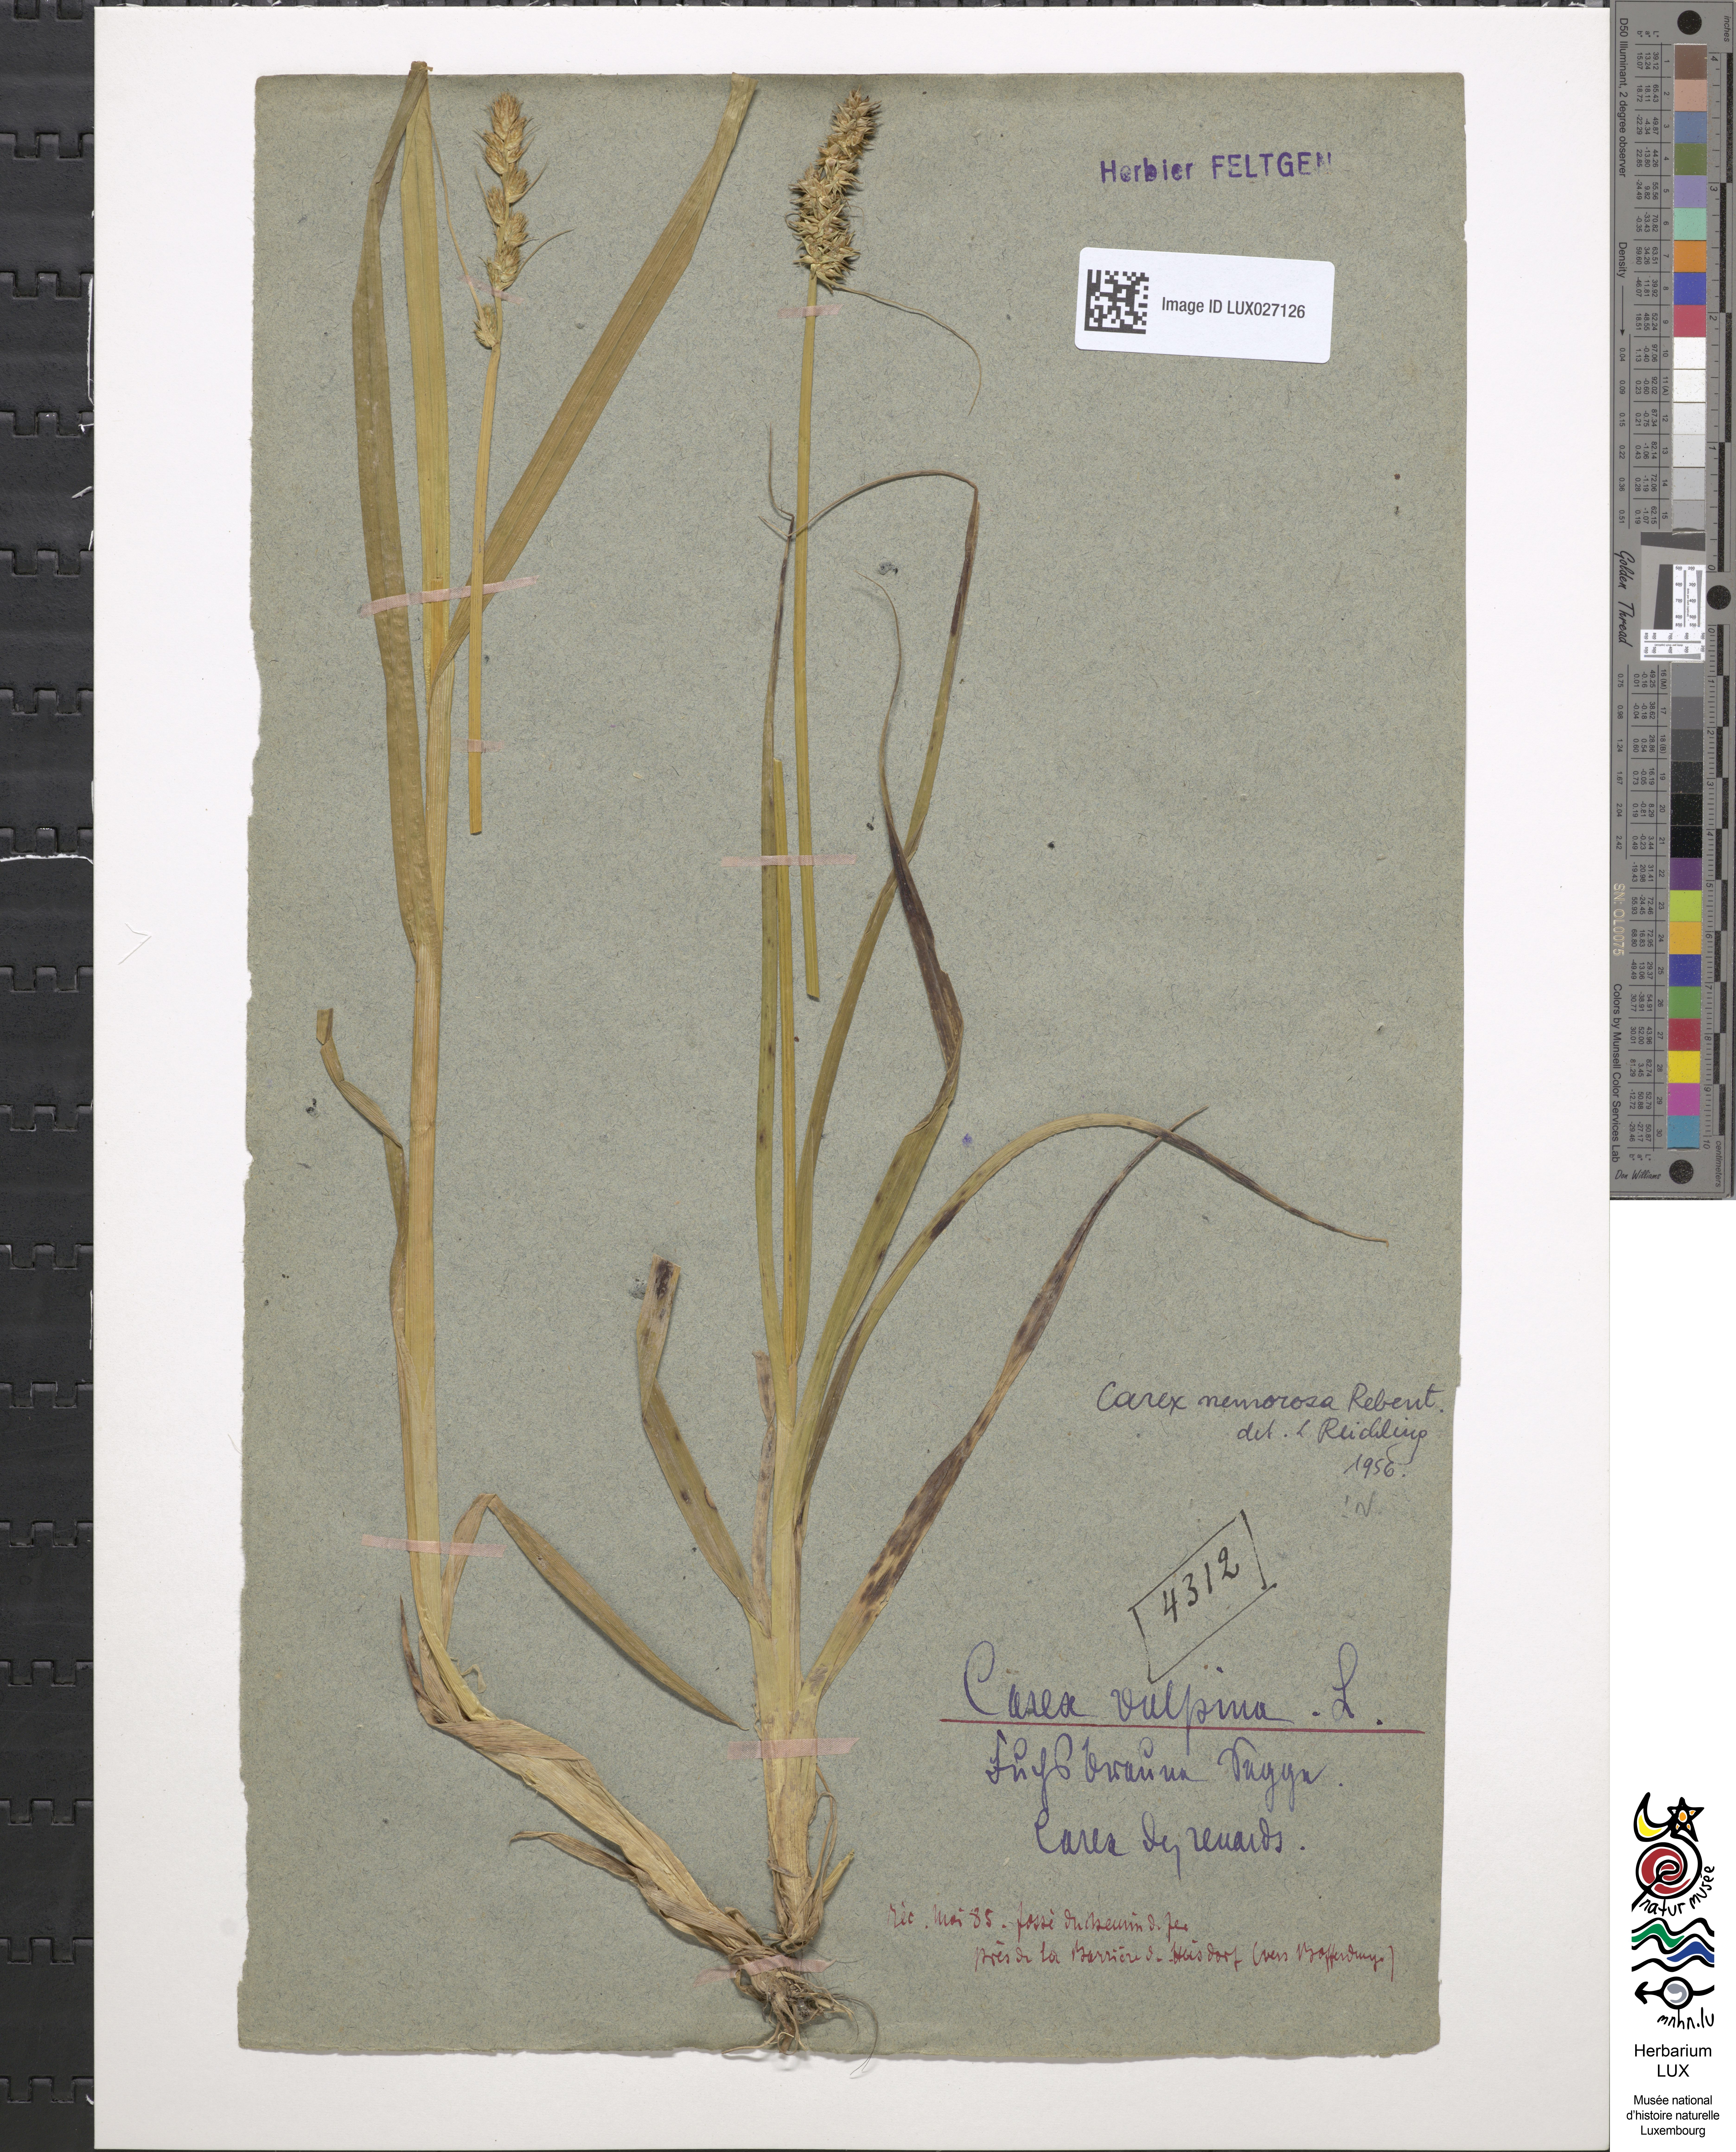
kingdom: Plantae
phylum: Tracheophyta
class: Liliopsida
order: Poales
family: Cyperaceae
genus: Carex
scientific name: Carex vulpina
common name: True fox-sedge
